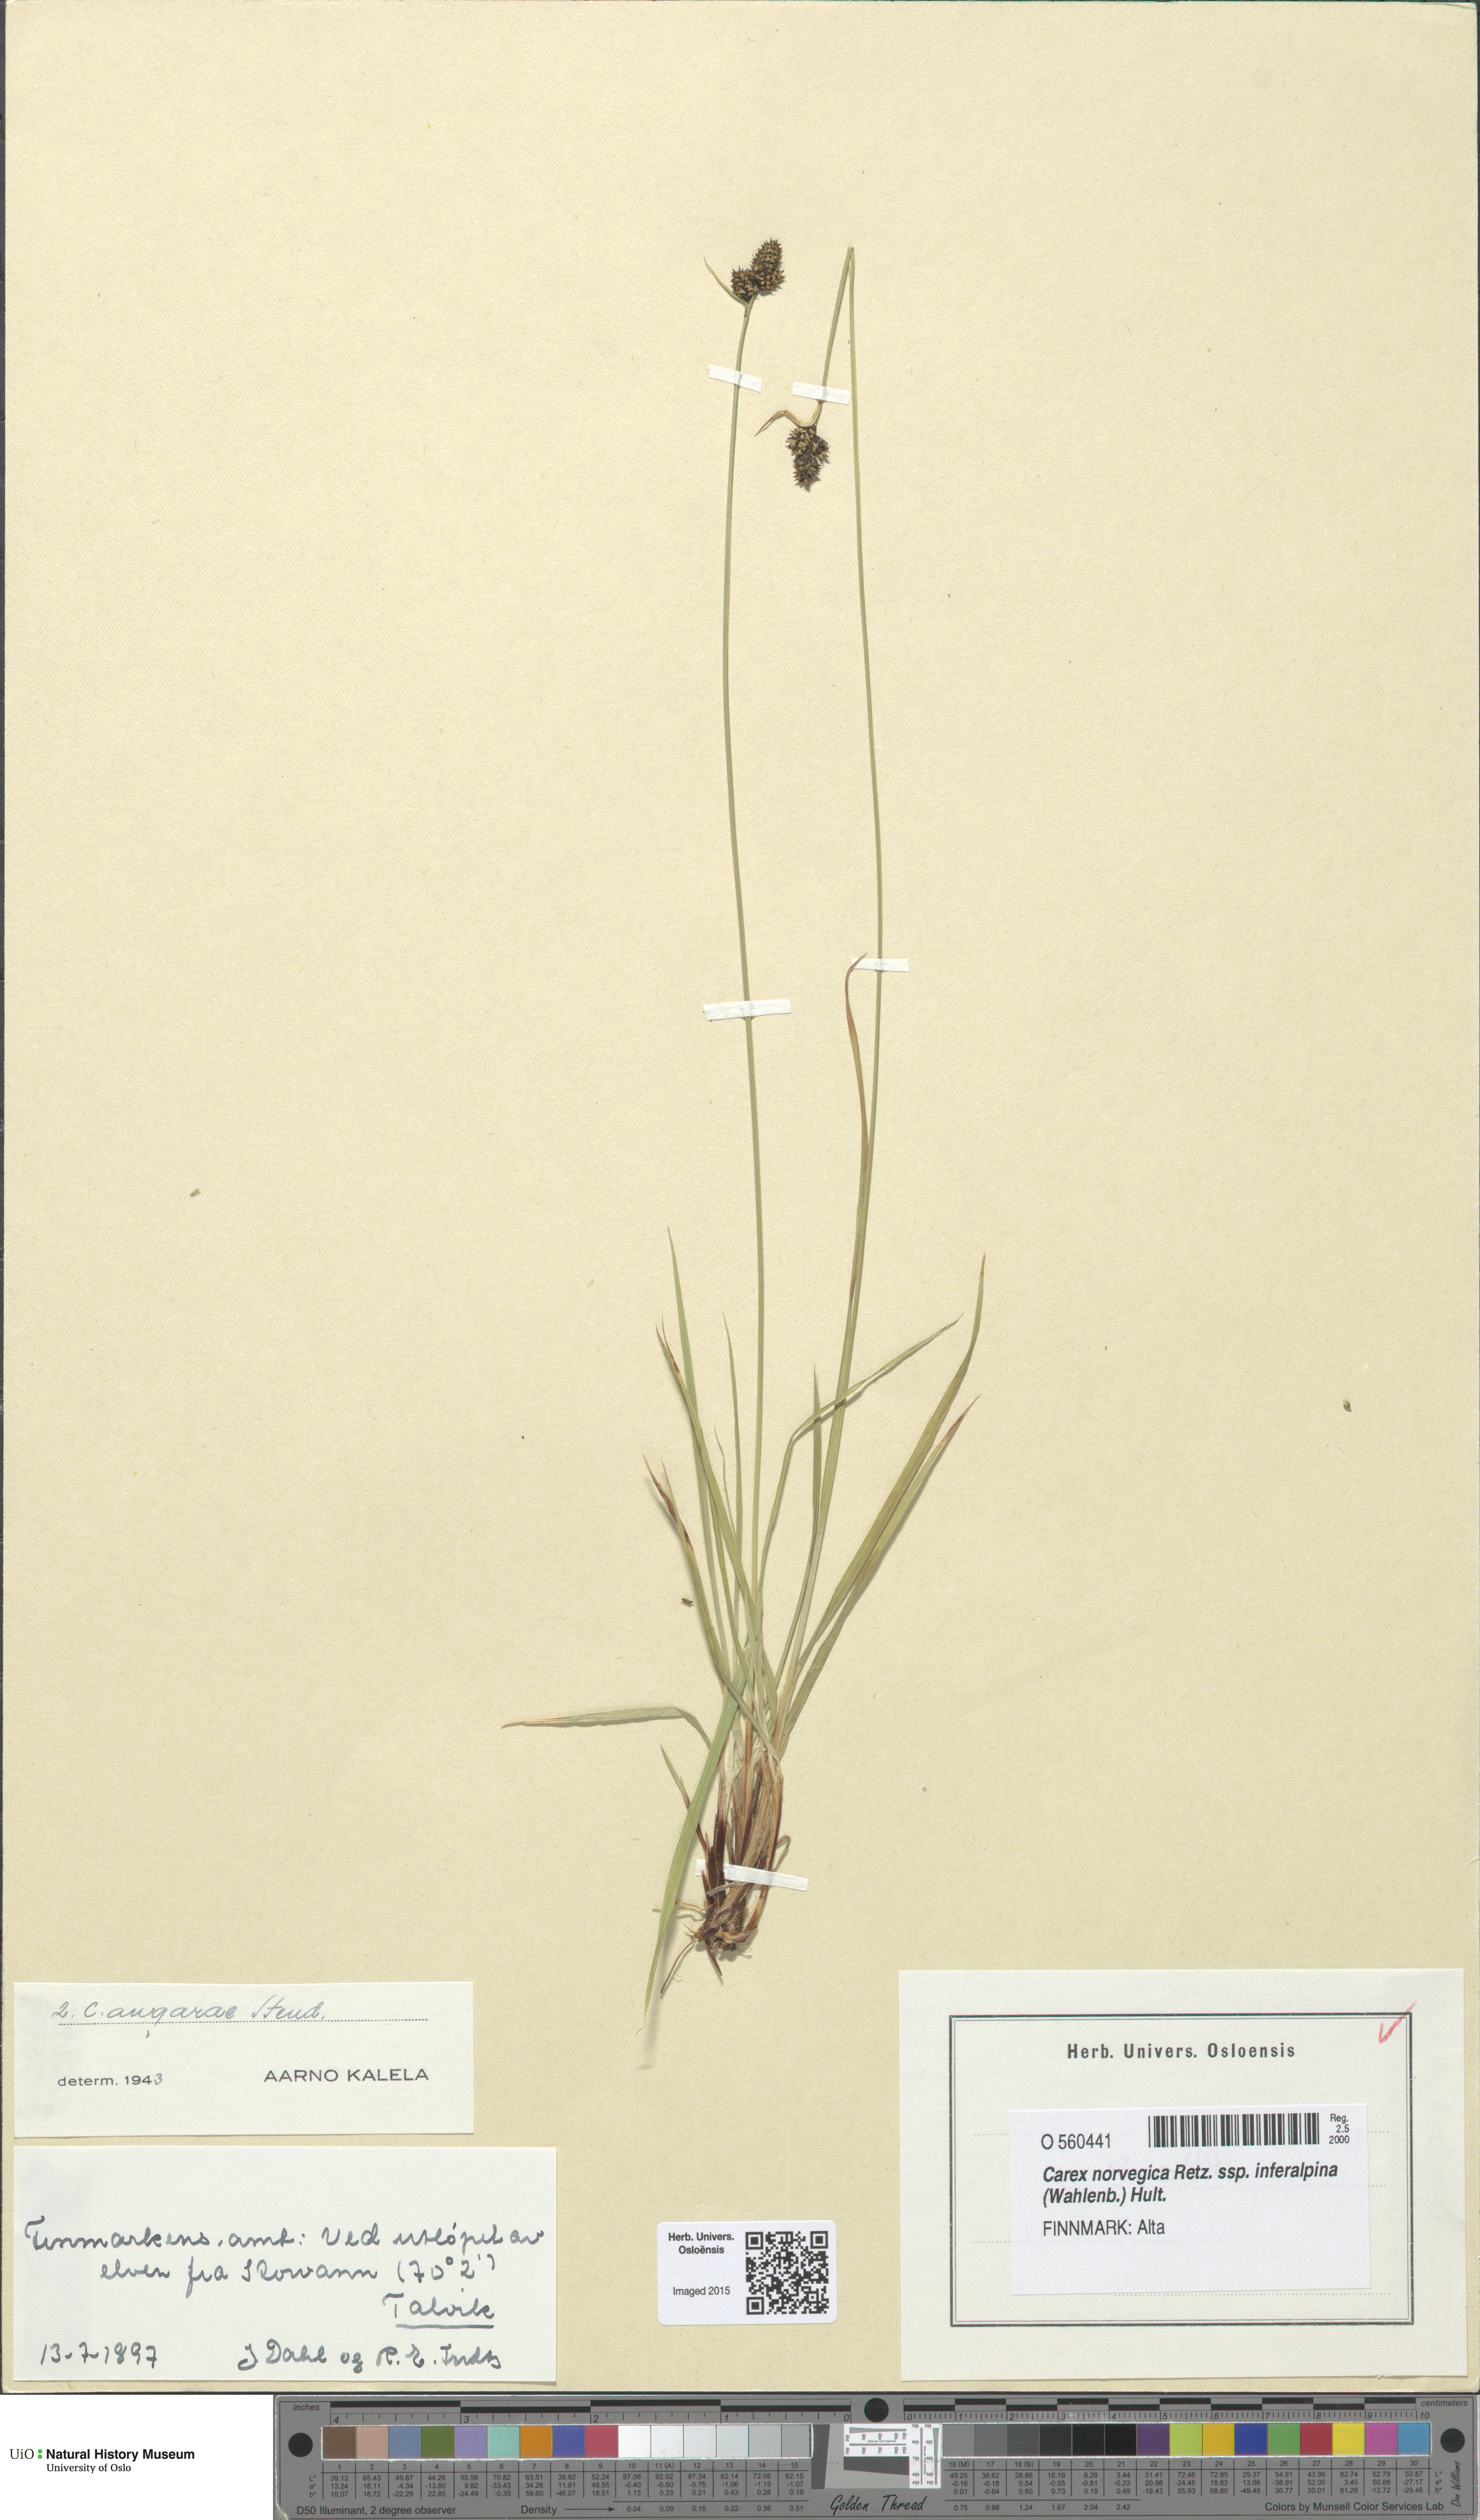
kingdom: Plantae
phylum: Tracheophyta
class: Liliopsida
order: Poales
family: Cyperaceae
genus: Carex
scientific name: Carex media
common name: Alpine sedge
